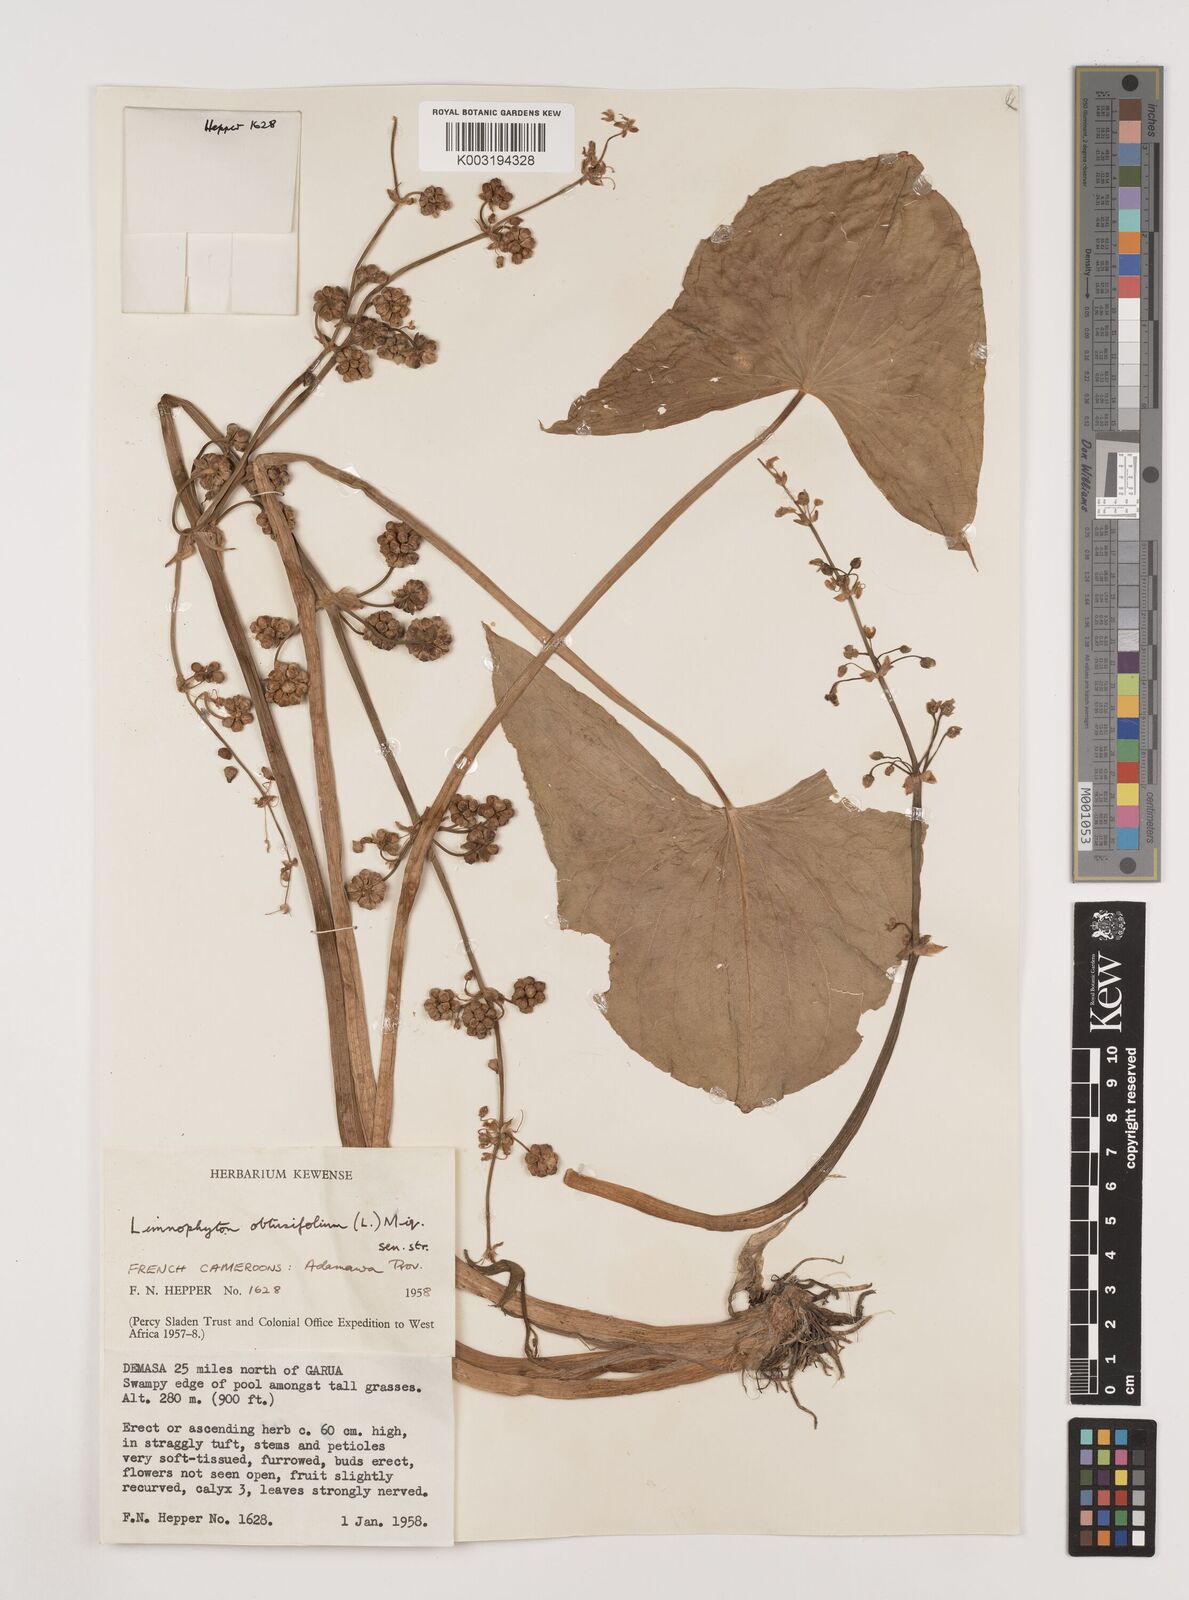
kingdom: Plantae
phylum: Tracheophyta
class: Liliopsida
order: Alismatales
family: Alismataceae
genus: Limnophyton
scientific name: Limnophyton obtusifolium
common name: Arrow head
